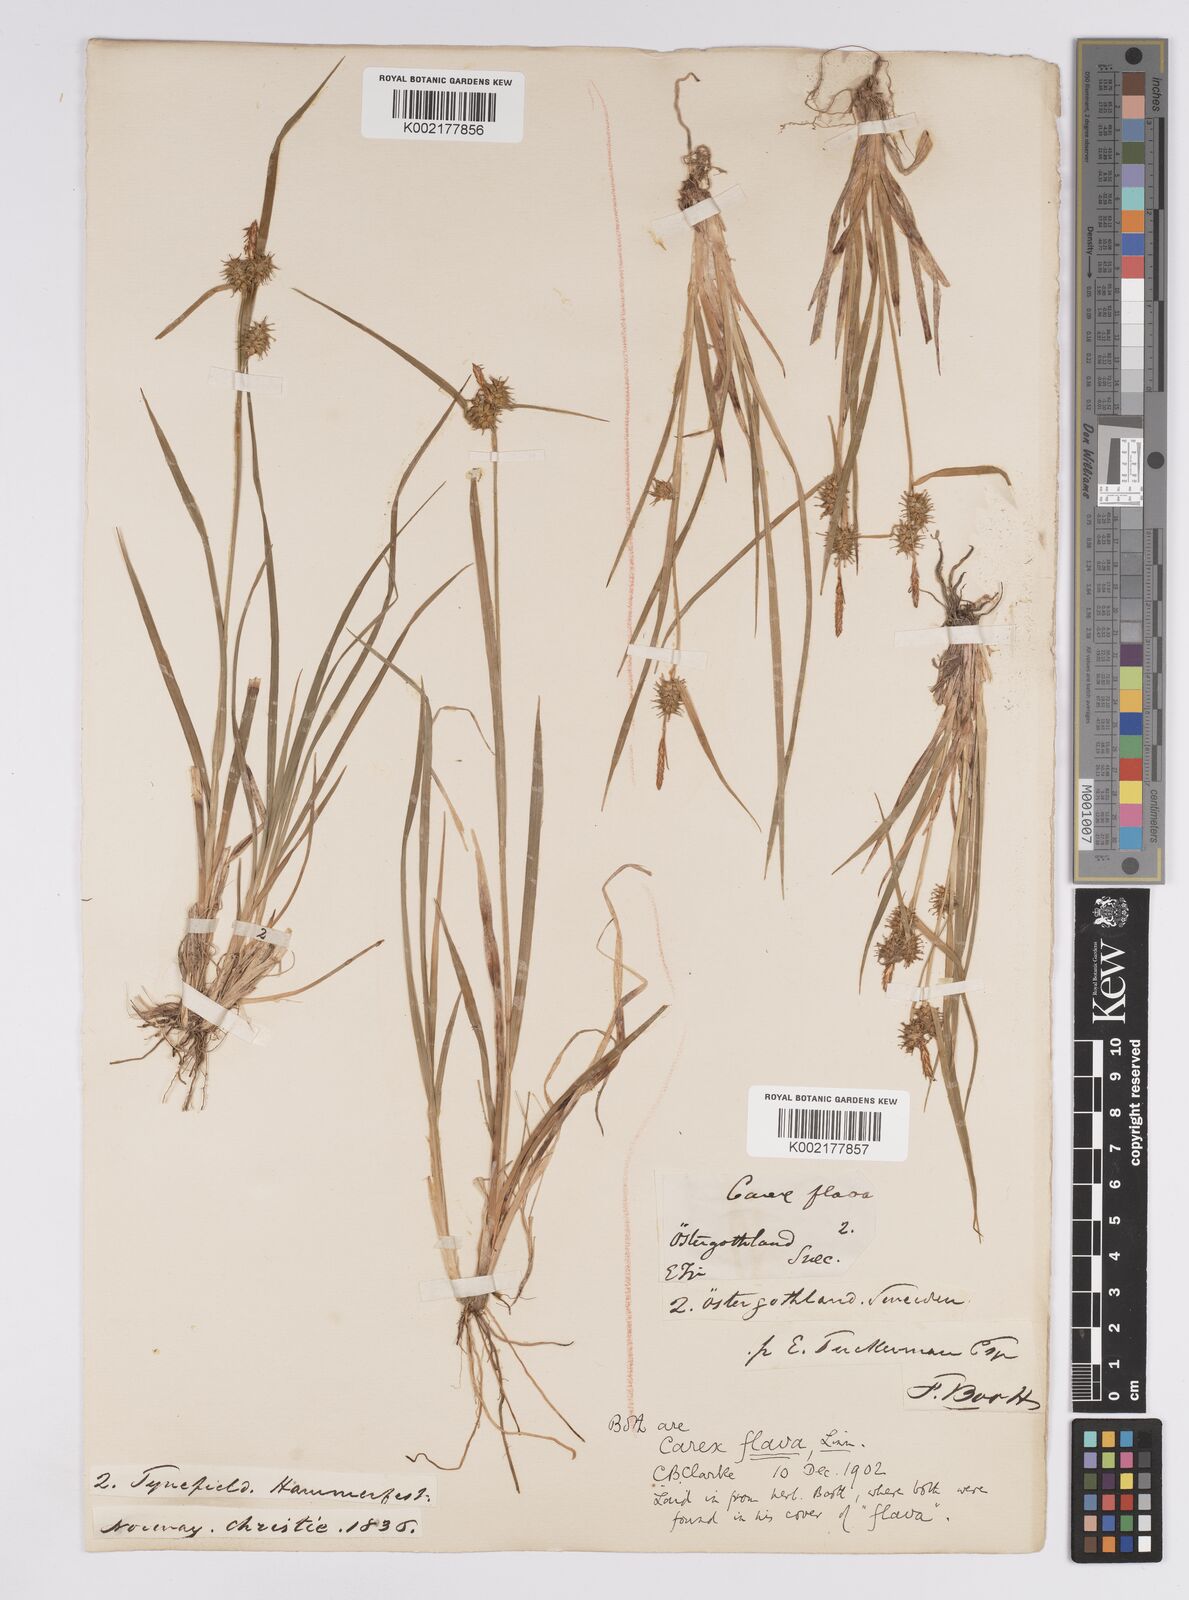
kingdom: Plantae
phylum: Tracheophyta
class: Liliopsida
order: Poales
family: Cyperaceae
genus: Carex
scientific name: Carex flava
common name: Large yellow-sedge
